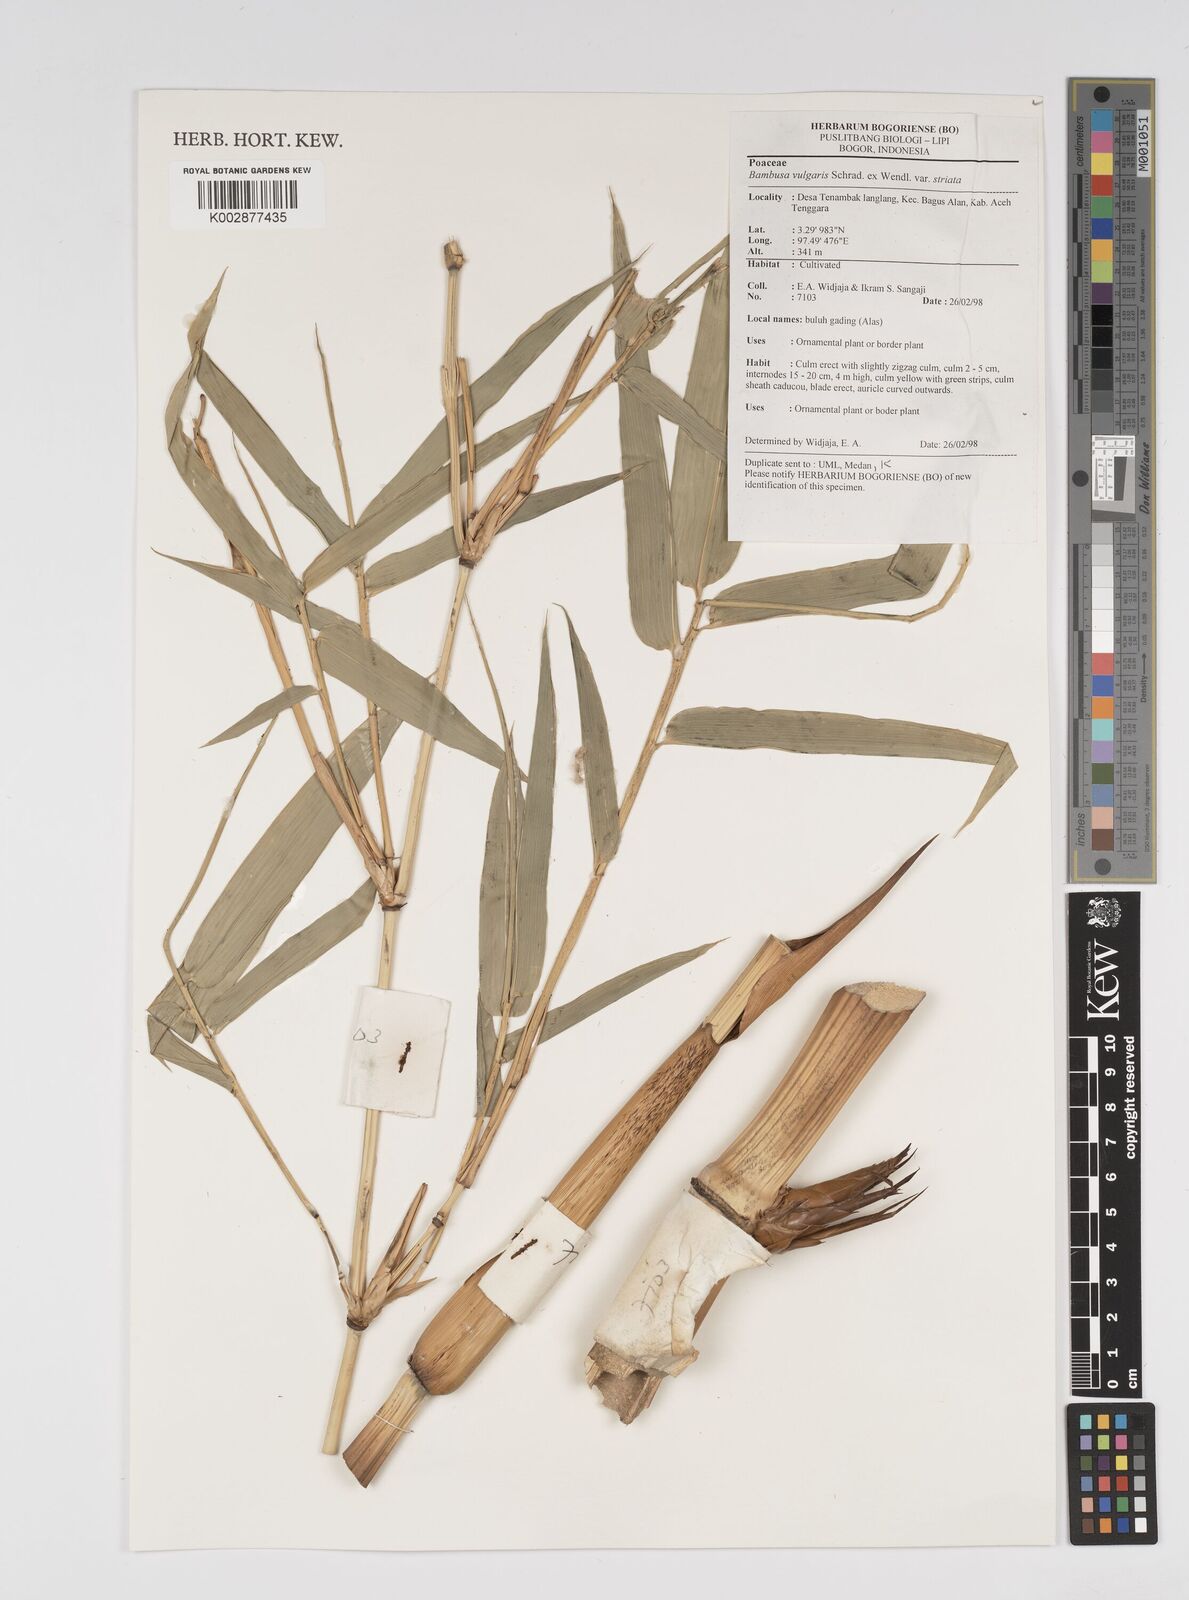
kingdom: Plantae
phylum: Tracheophyta
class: Liliopsida
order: Poales
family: Poaceae
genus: Bambusa
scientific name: Bambusa vulgaris
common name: Common bamboo
